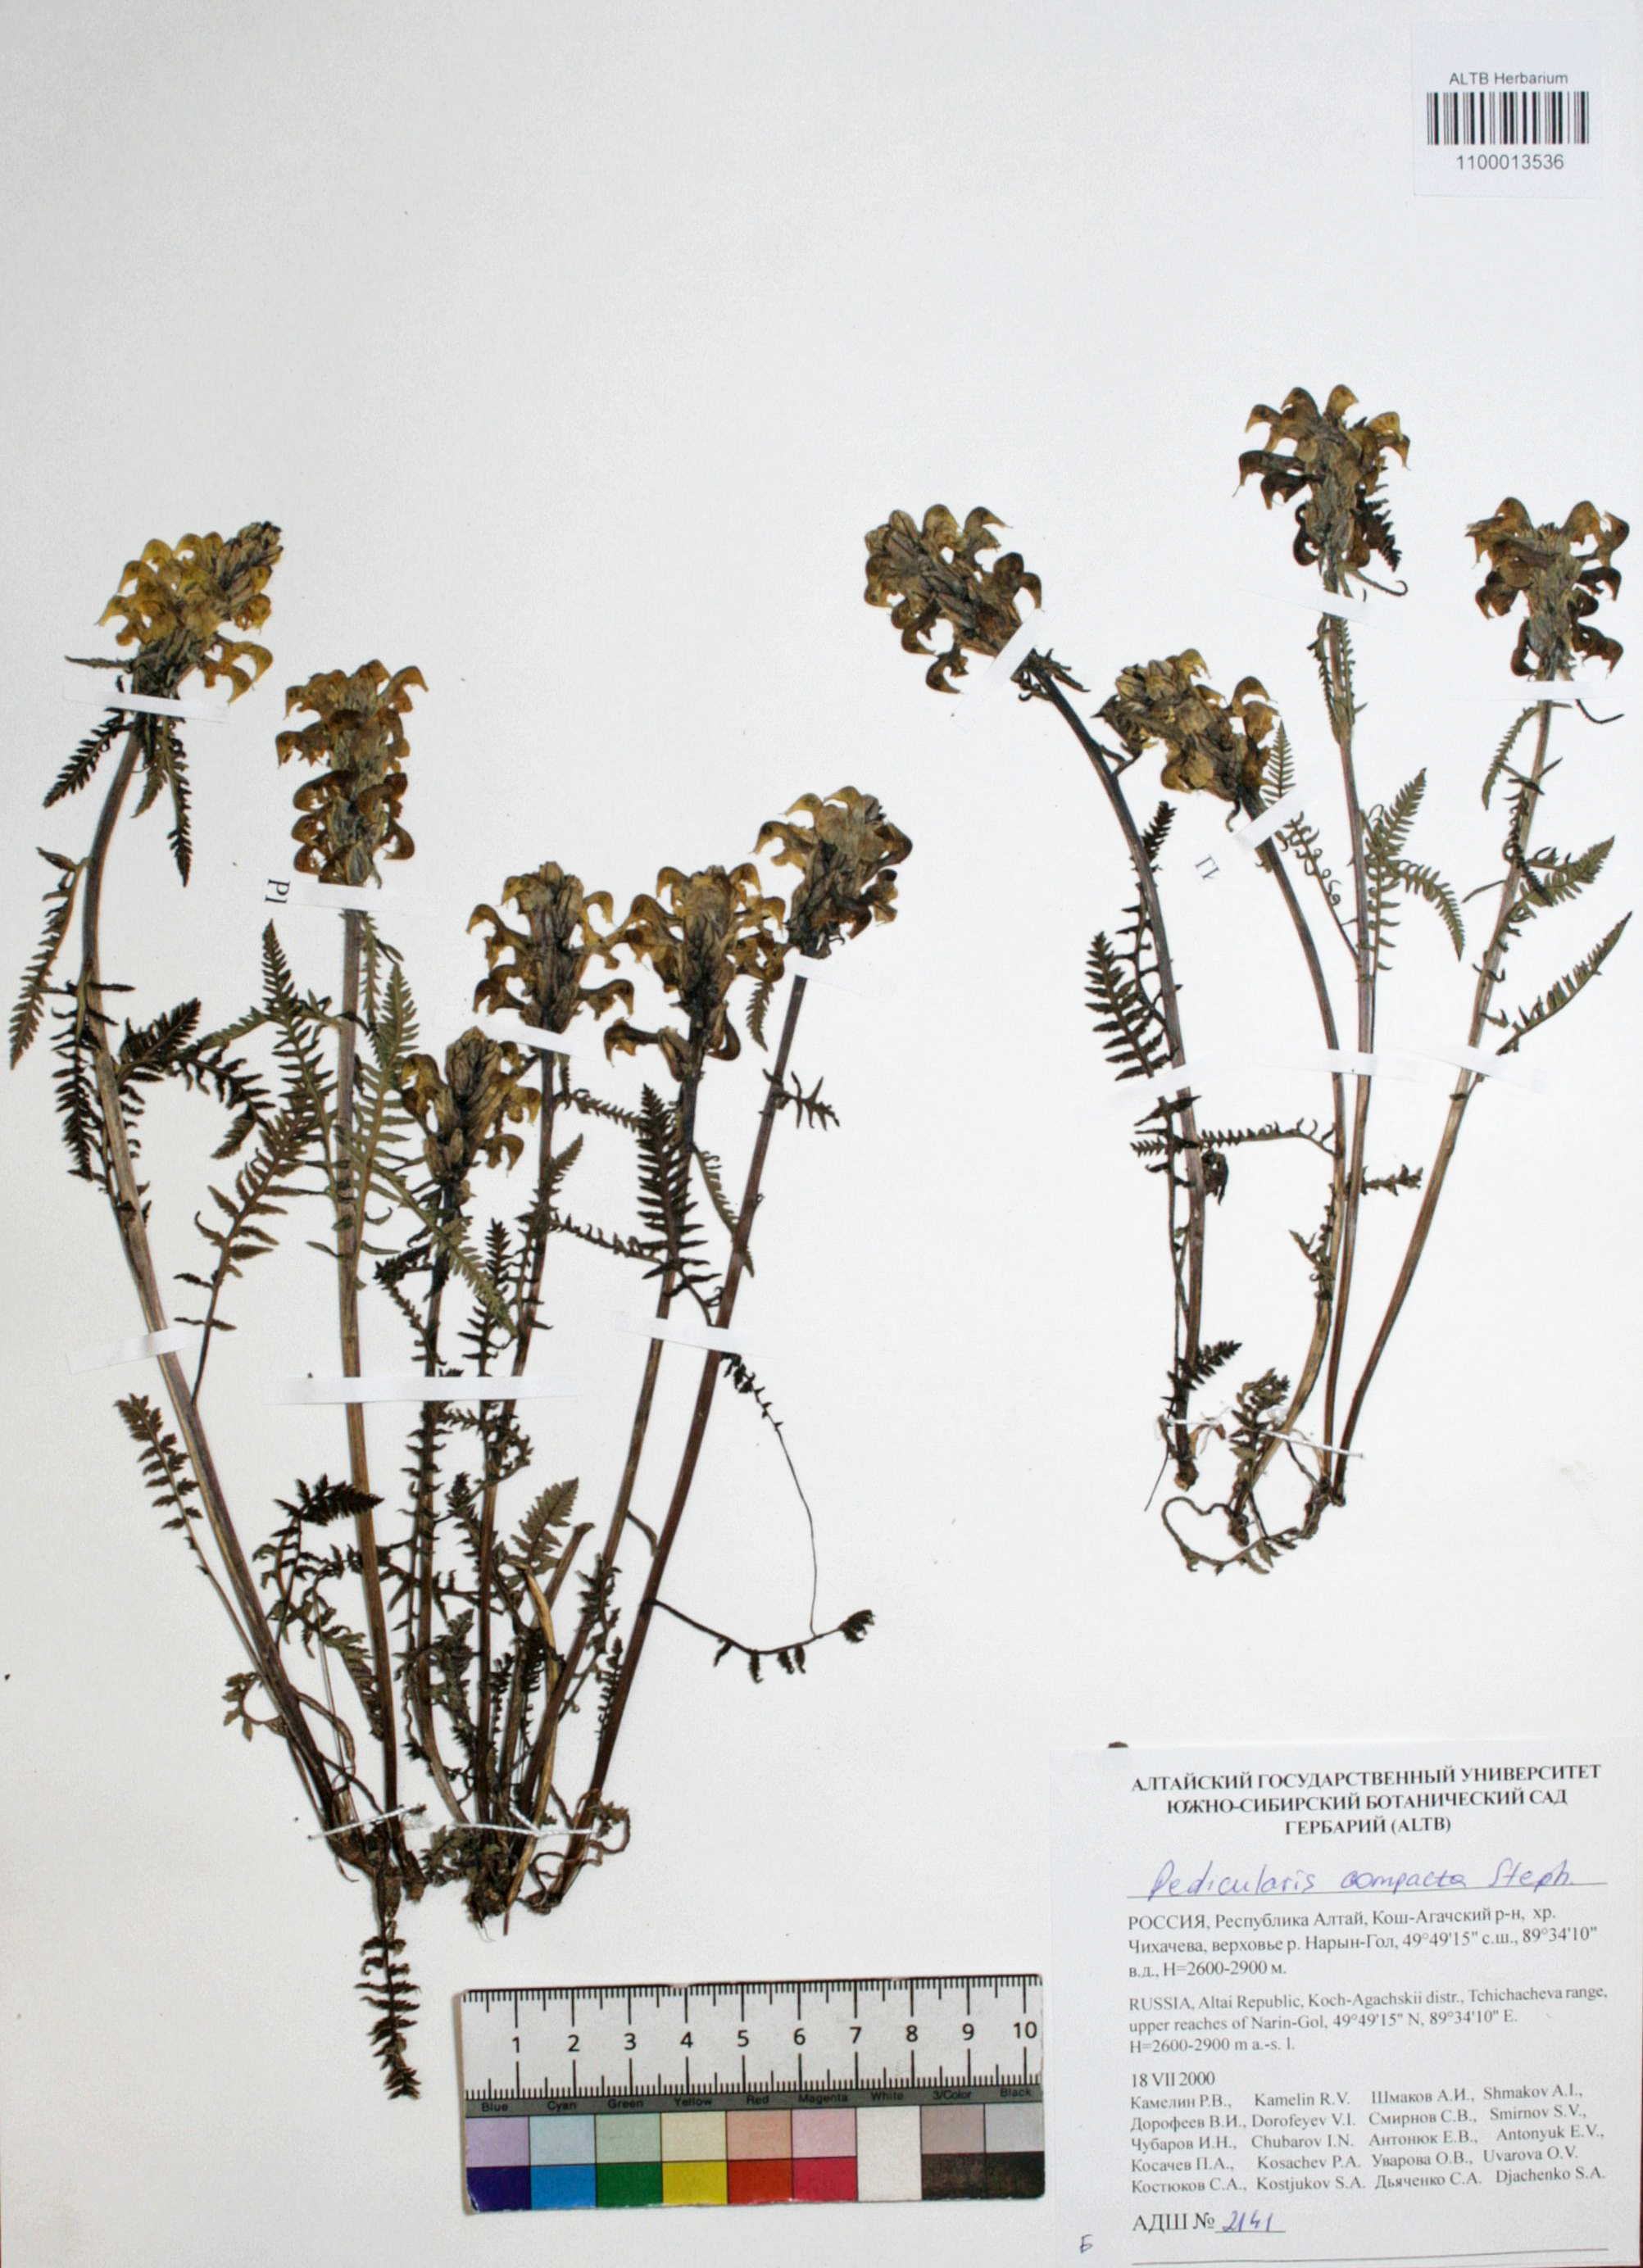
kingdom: Plantae
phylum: Tracheophyta
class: Magnoliopsida
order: Lamiales
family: Orobanchaceae
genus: Pedicularis
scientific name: Pedicularis compacta
